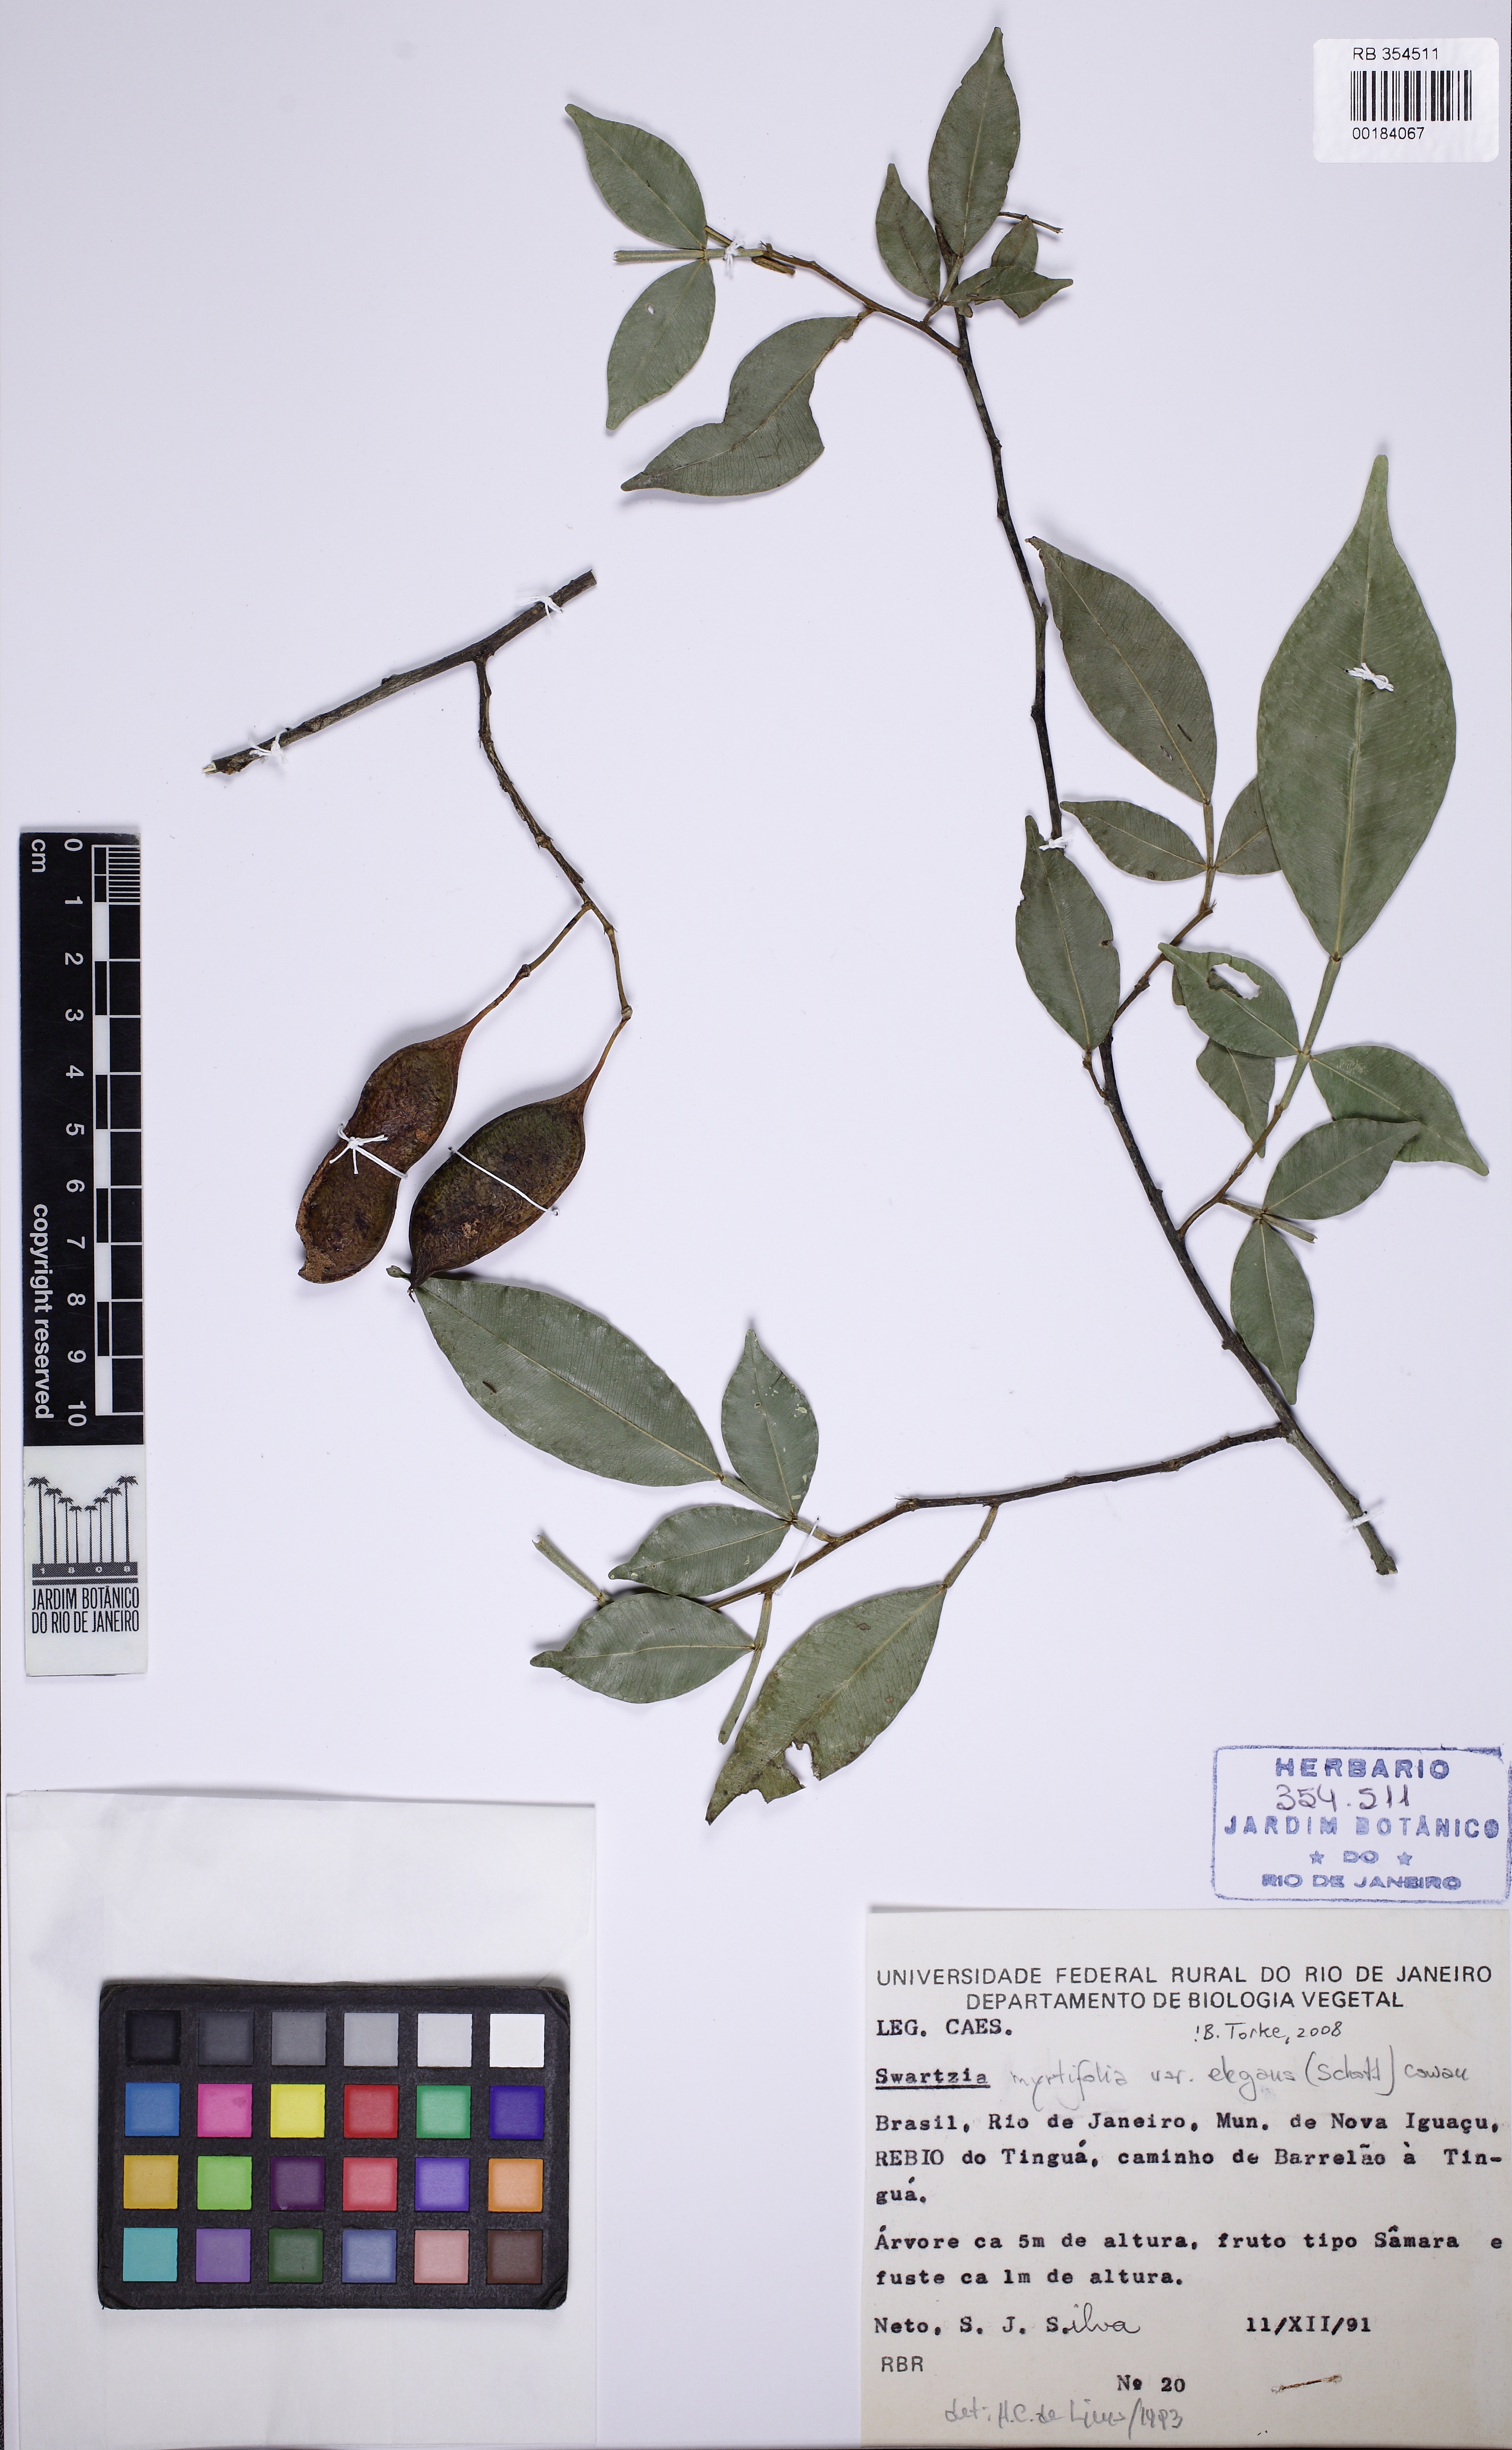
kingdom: Plantae
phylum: Tracheophyta
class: Magnoliopsida
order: Fabales
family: Fabaceae
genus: Swartzia
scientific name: Swartzia simplex
